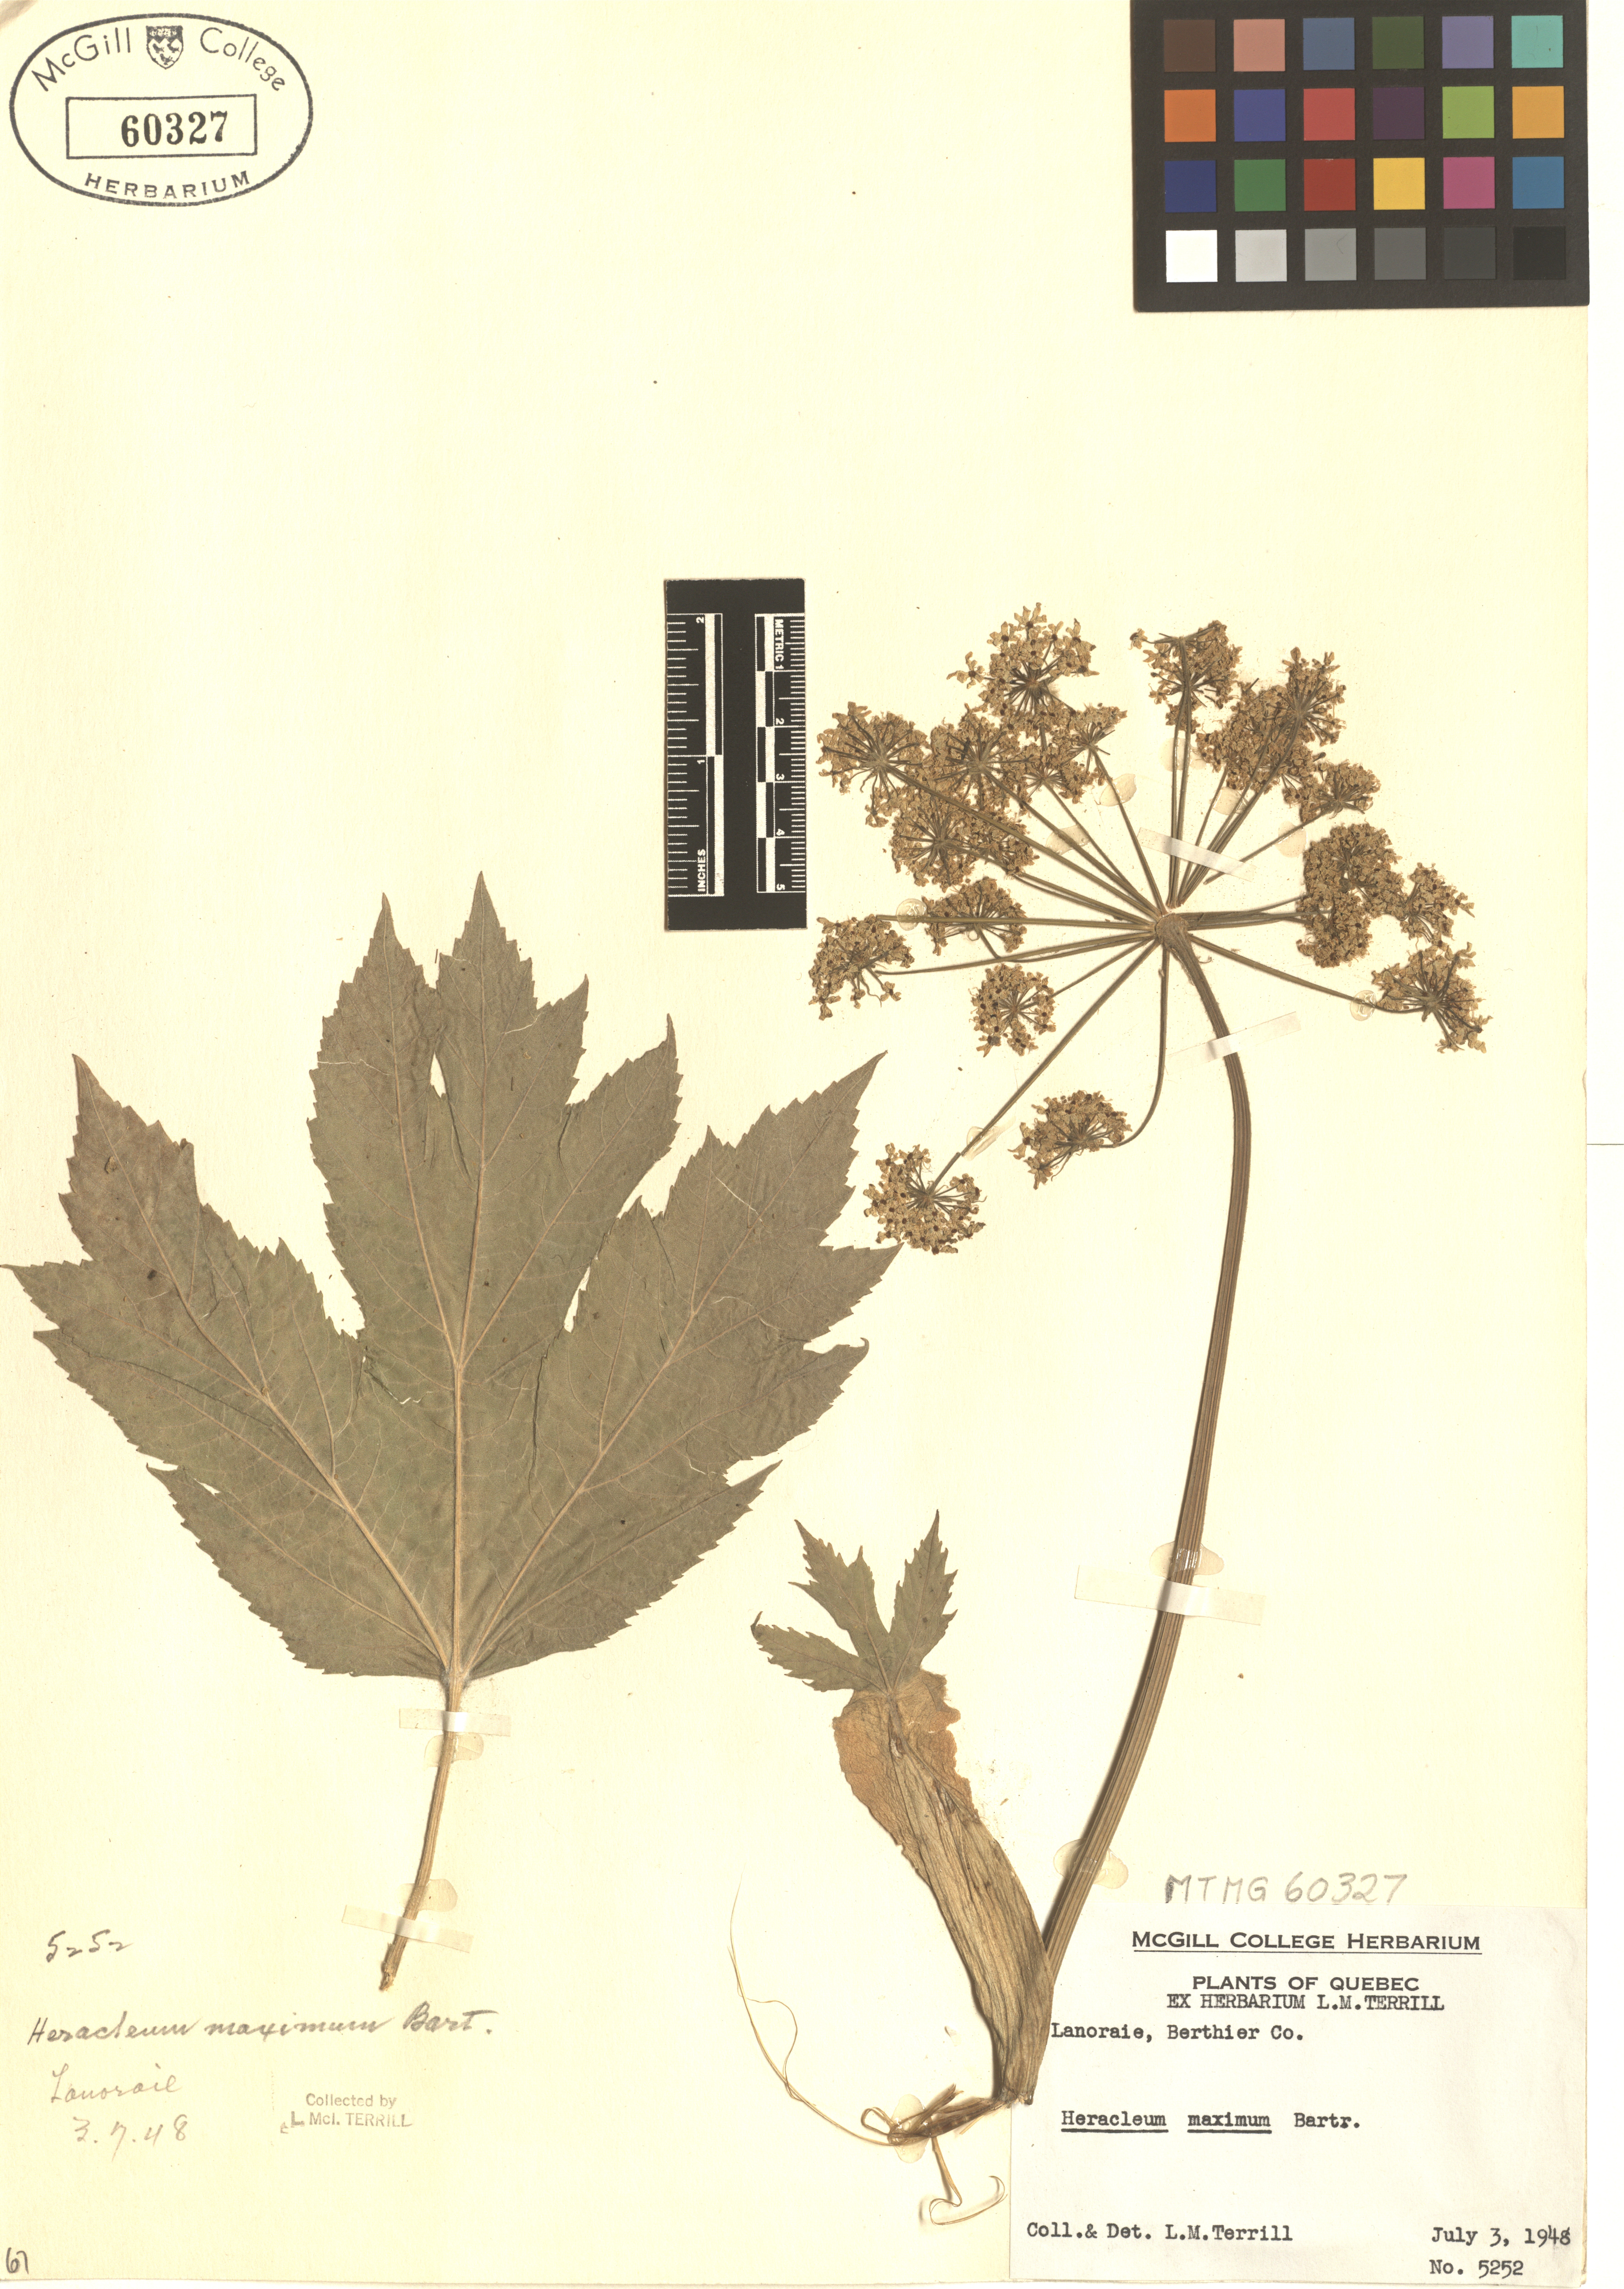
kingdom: Plantae
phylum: Tracheophyta
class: Magnoliopsida
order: Apiales
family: Apiaceae
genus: Heracleum
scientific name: Heracleum maximum
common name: American cow parsnip
